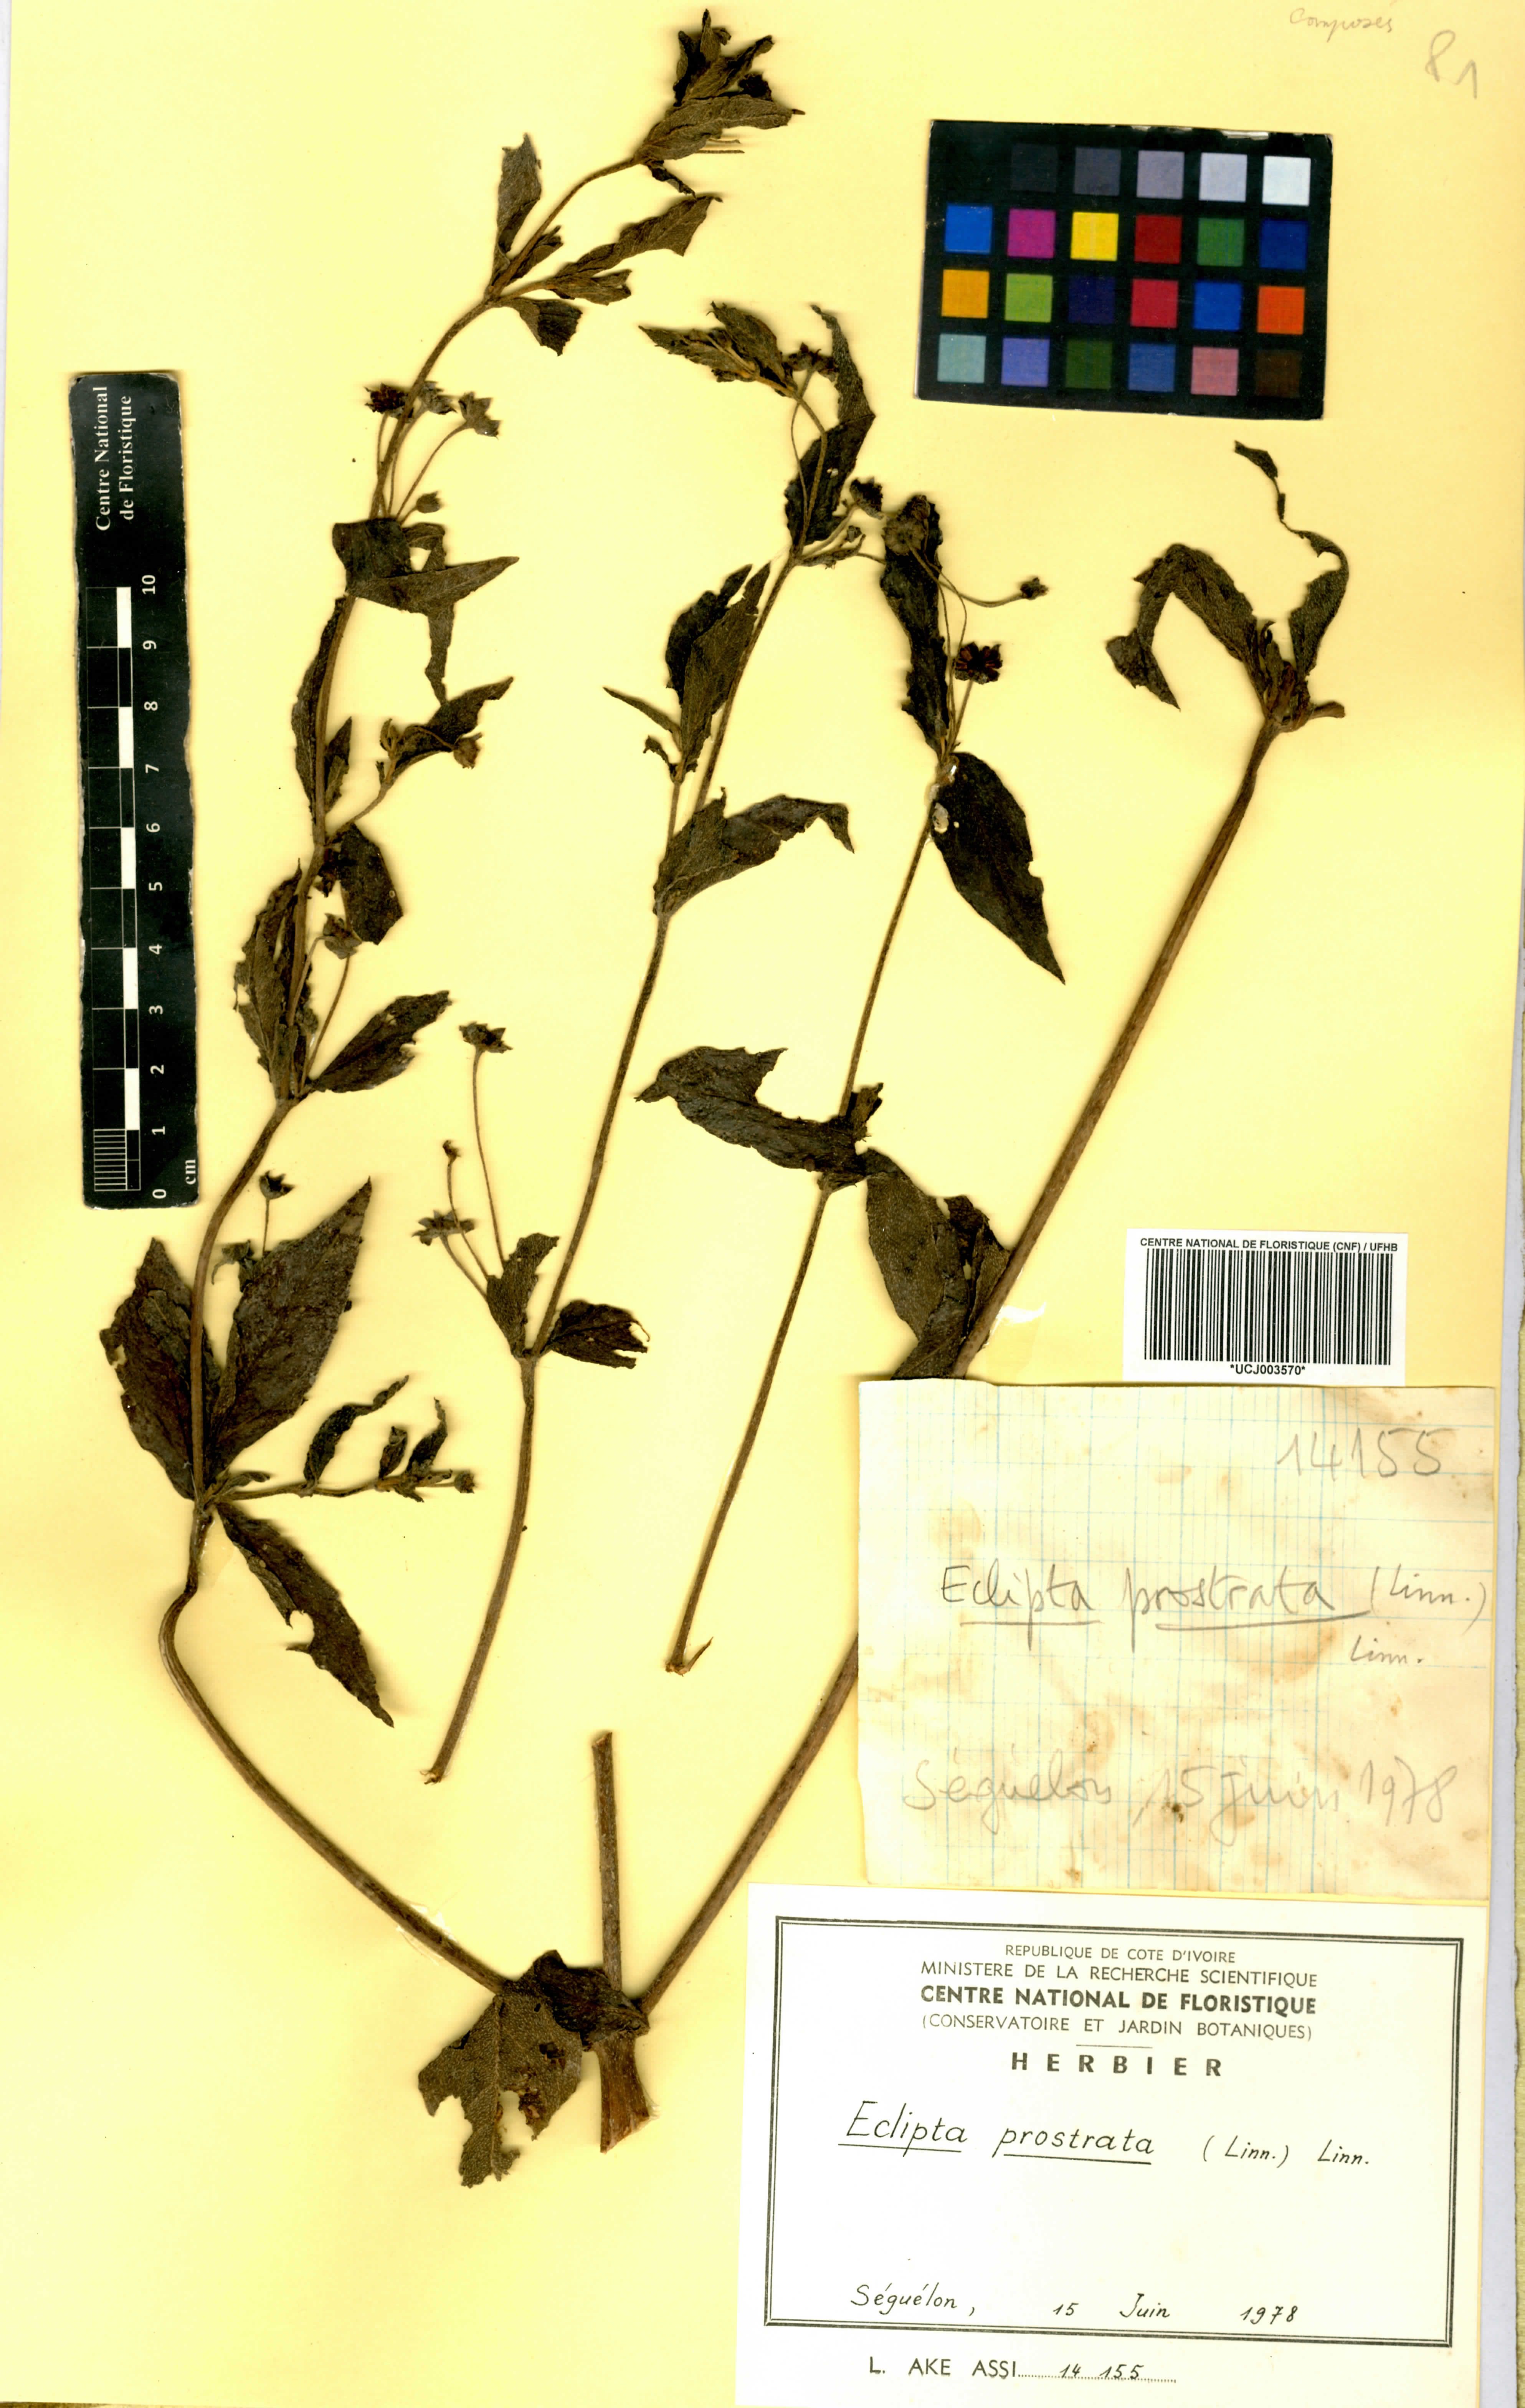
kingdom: Plantae
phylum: Tracheophyta
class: Magnoliopsida
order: Asterales
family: Asteraceae
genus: Eclipta
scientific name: Eclipta prostrata
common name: False daisy
